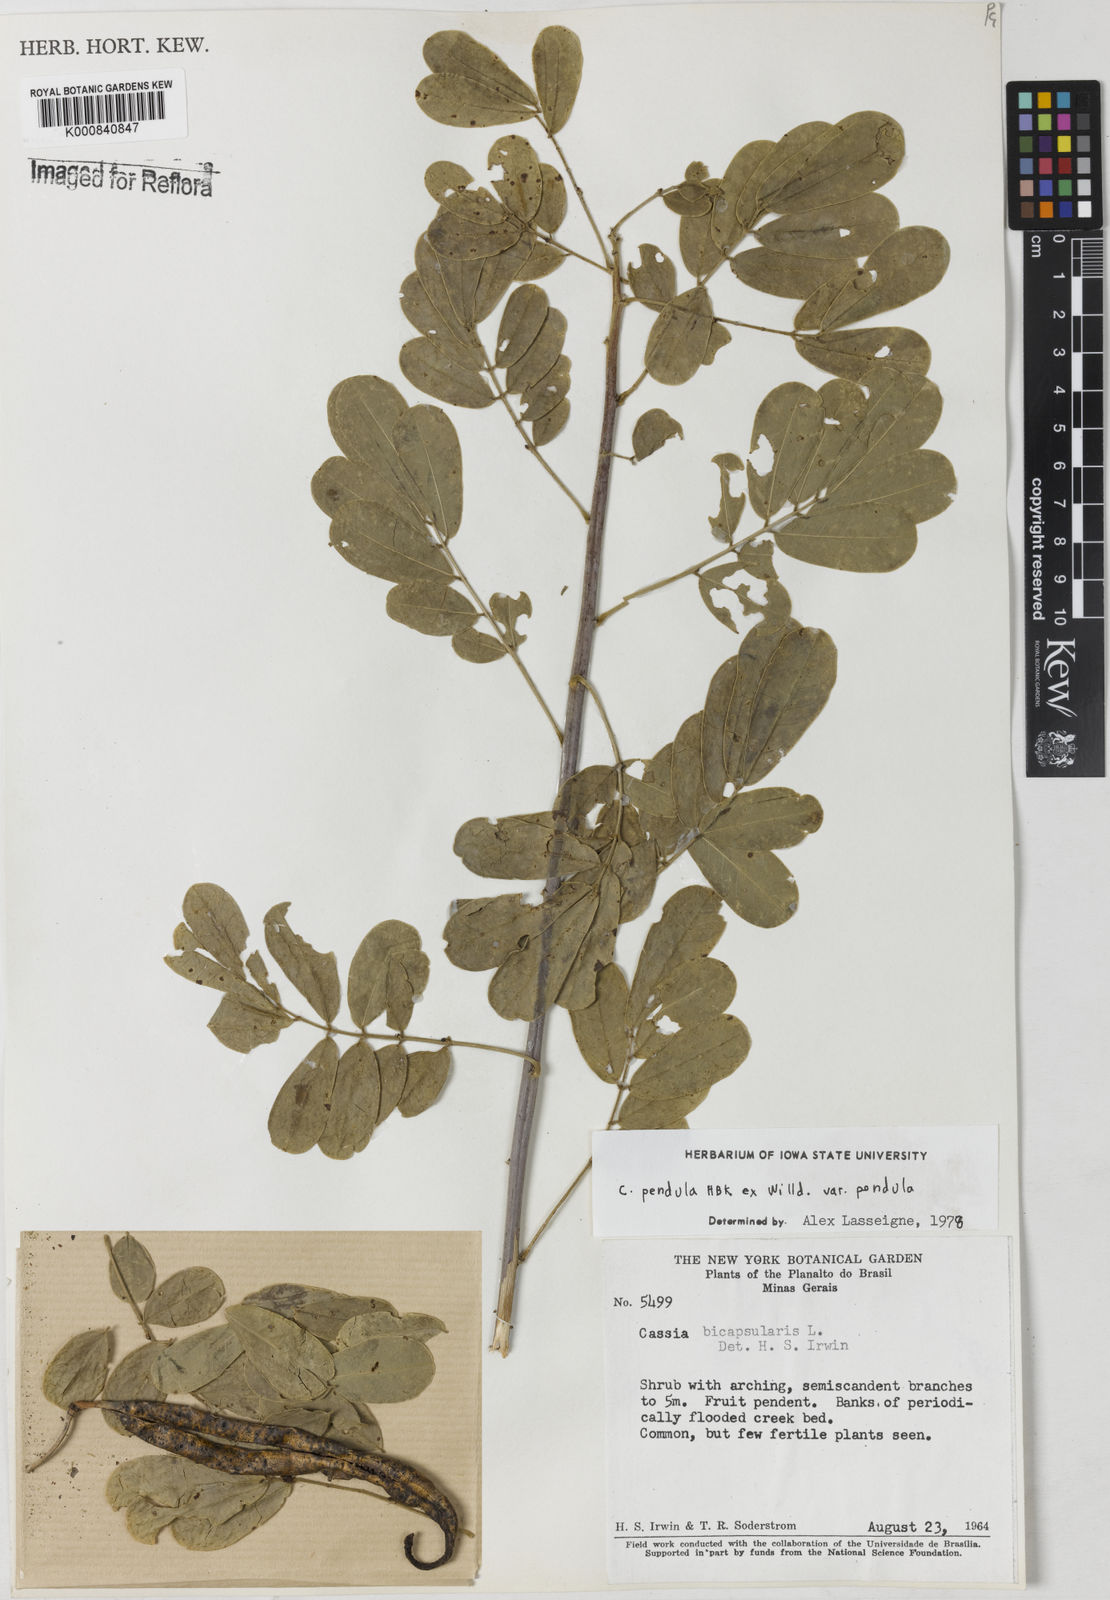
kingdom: Plantae
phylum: Tracheophyta
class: Magnoliopsida
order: Fabales
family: Fabaceae
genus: Senna
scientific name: Senna pendula
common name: Easter cassia
